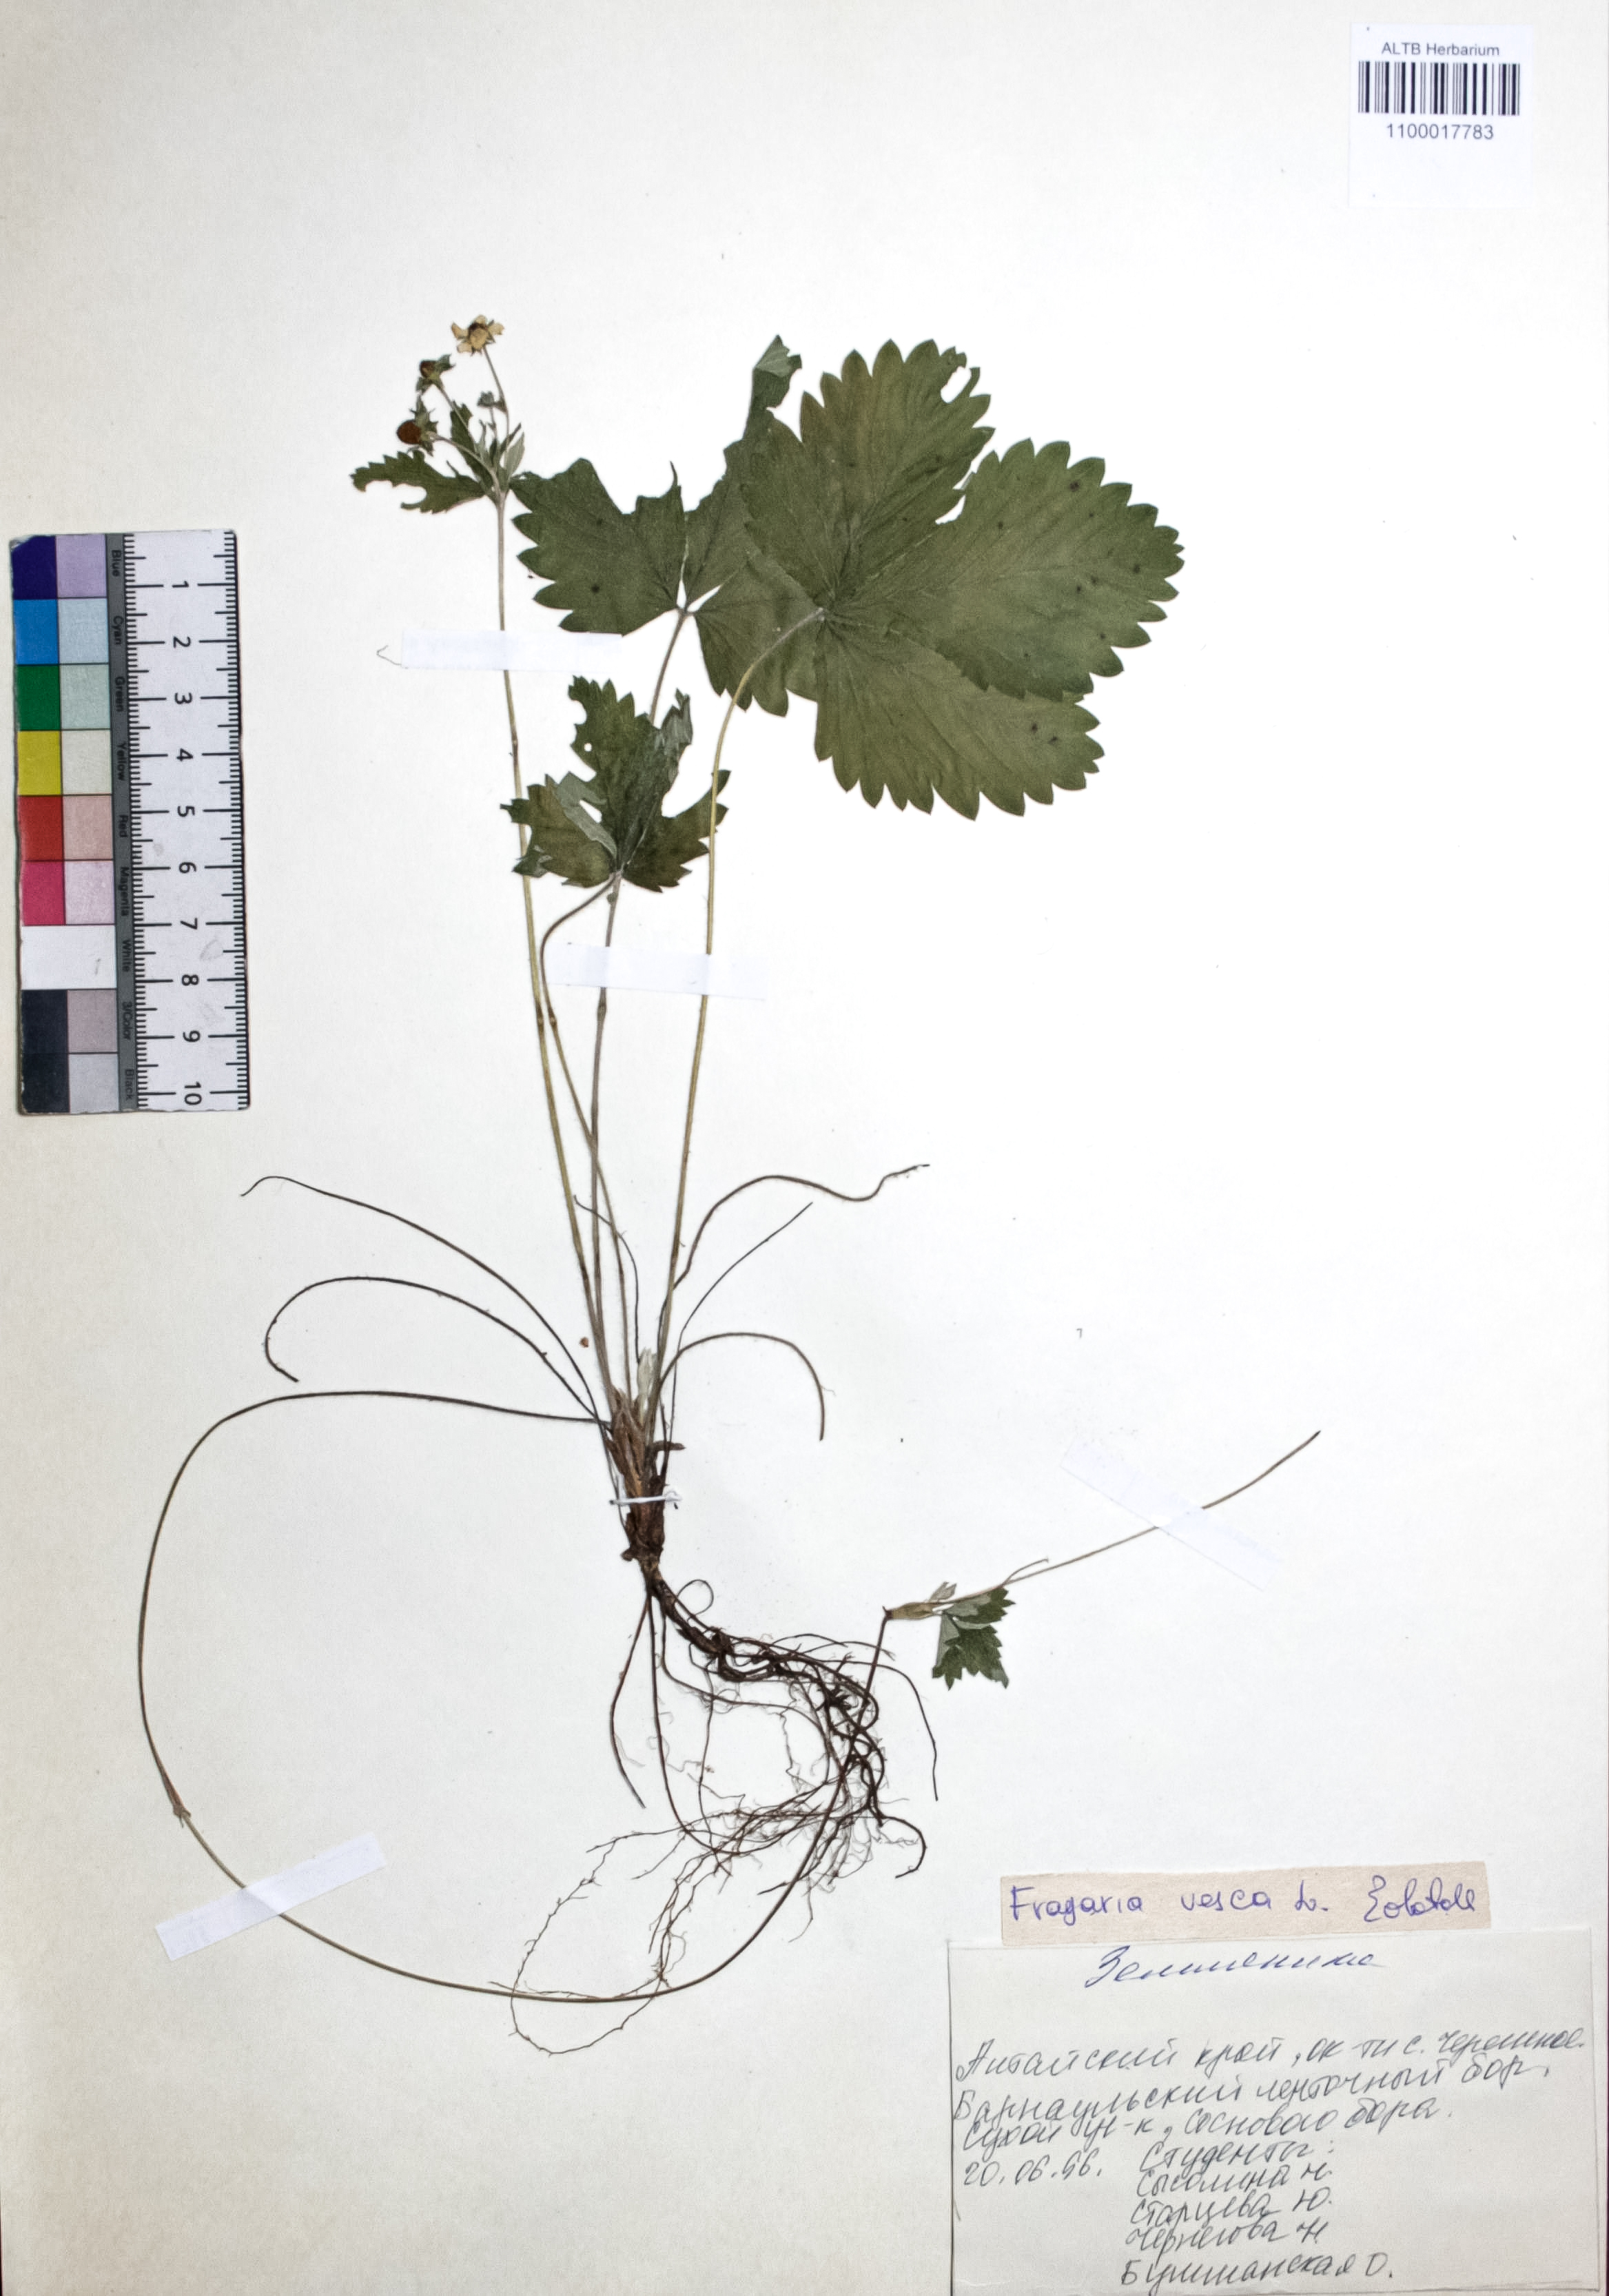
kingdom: Plantae
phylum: Tracheophyta
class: Magnoliopsida
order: Rosales
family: Rosaceae
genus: Fragaria
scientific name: Fragaria vesca
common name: Wild strawberry
